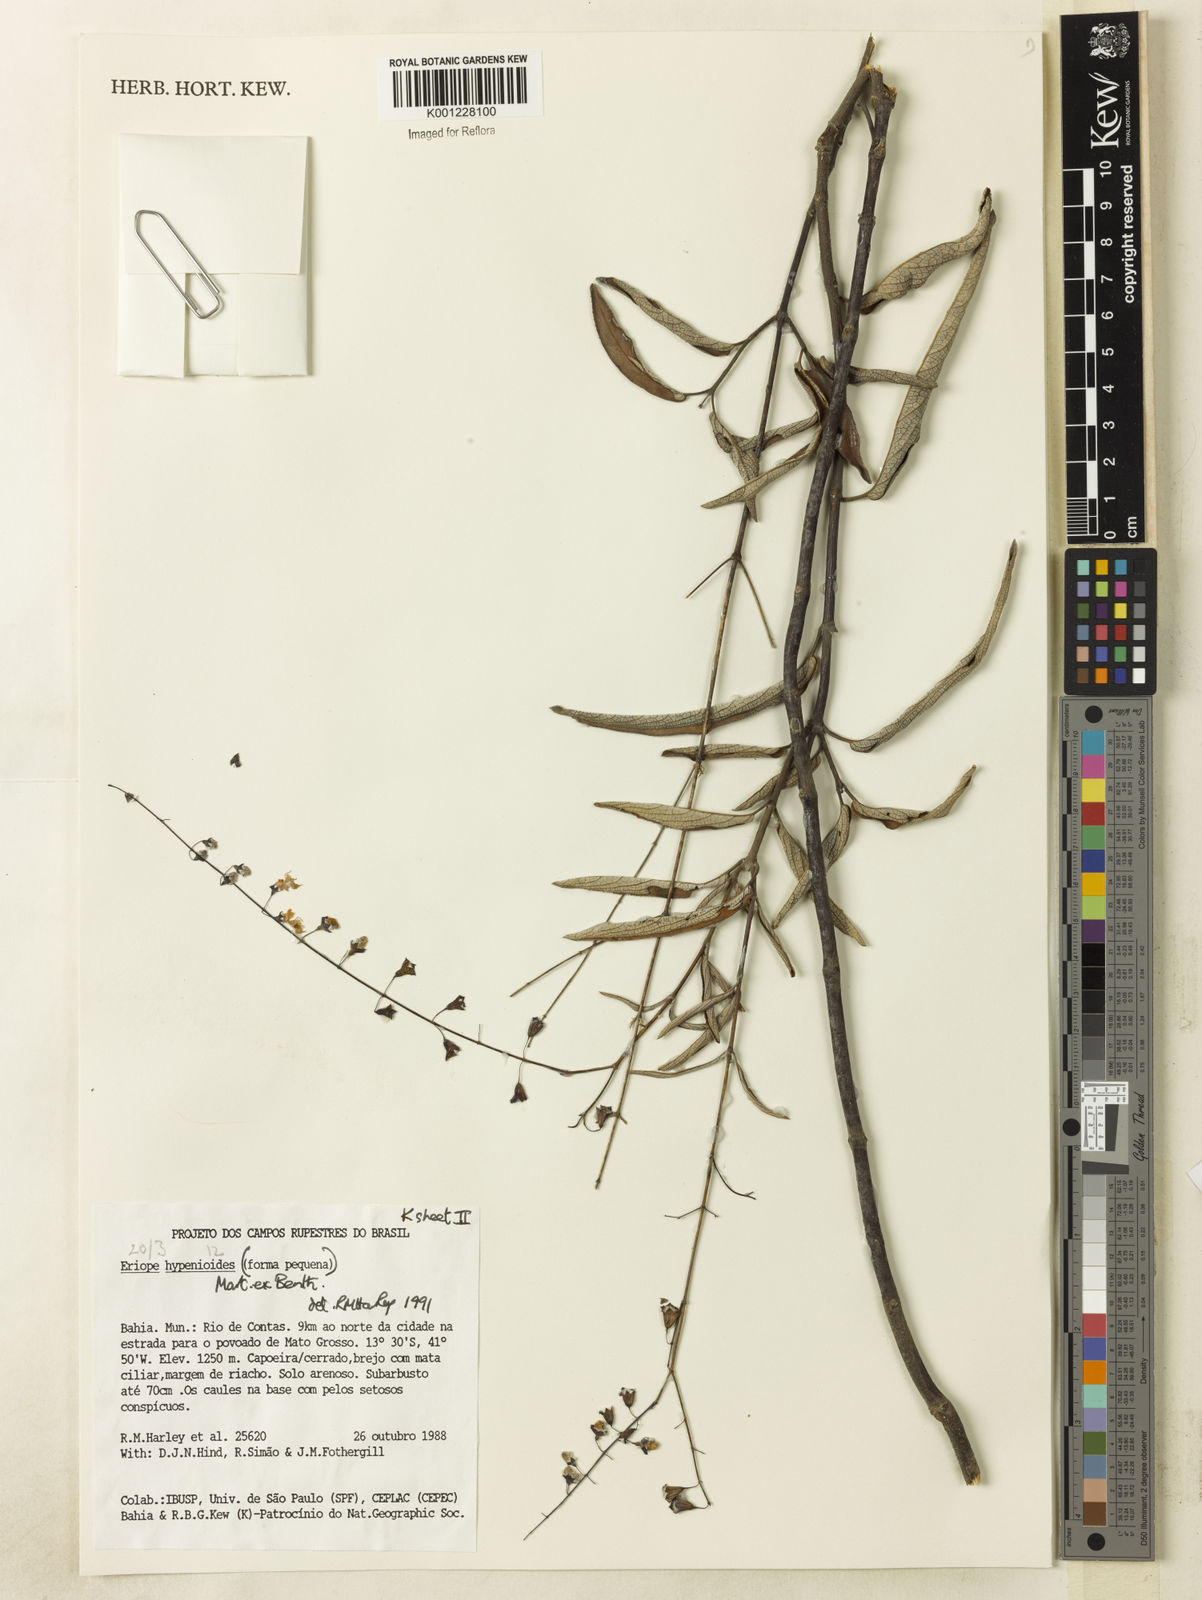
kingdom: Plantae
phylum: Tracheophyta
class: Magnoliopsida
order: Lamiales
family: Lamiaceae
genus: Eriope
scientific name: Eriope hypenioides
